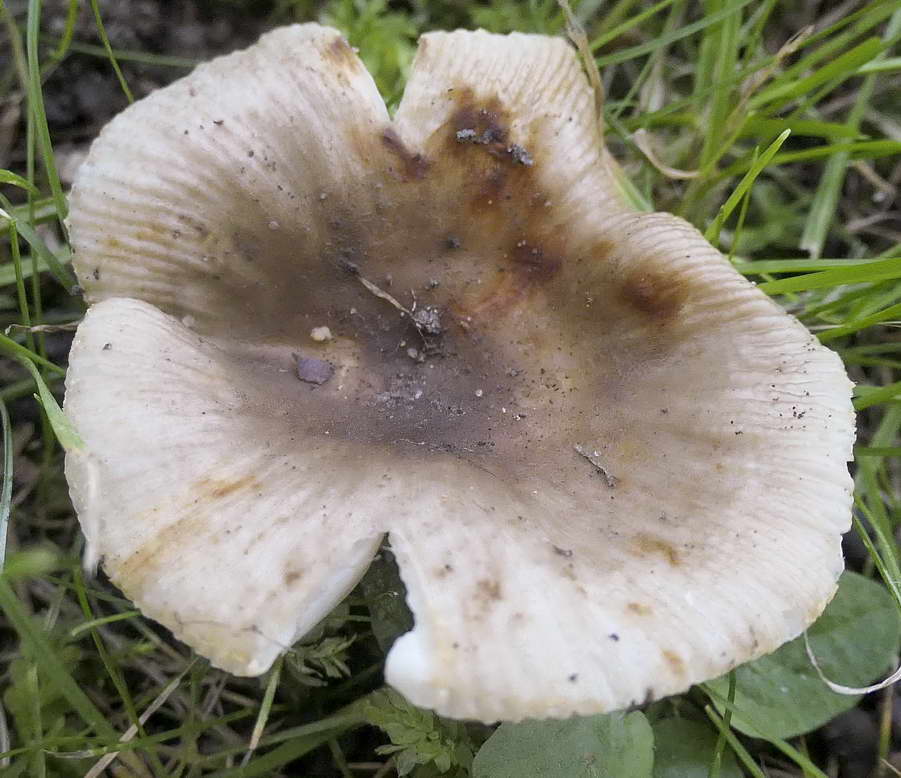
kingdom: Fungi
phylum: Basidiomycota
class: Agaricomycetes
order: Russulales
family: Russulaceae
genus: Russula
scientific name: Russula insignis
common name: gulfodet kam-skørhat
